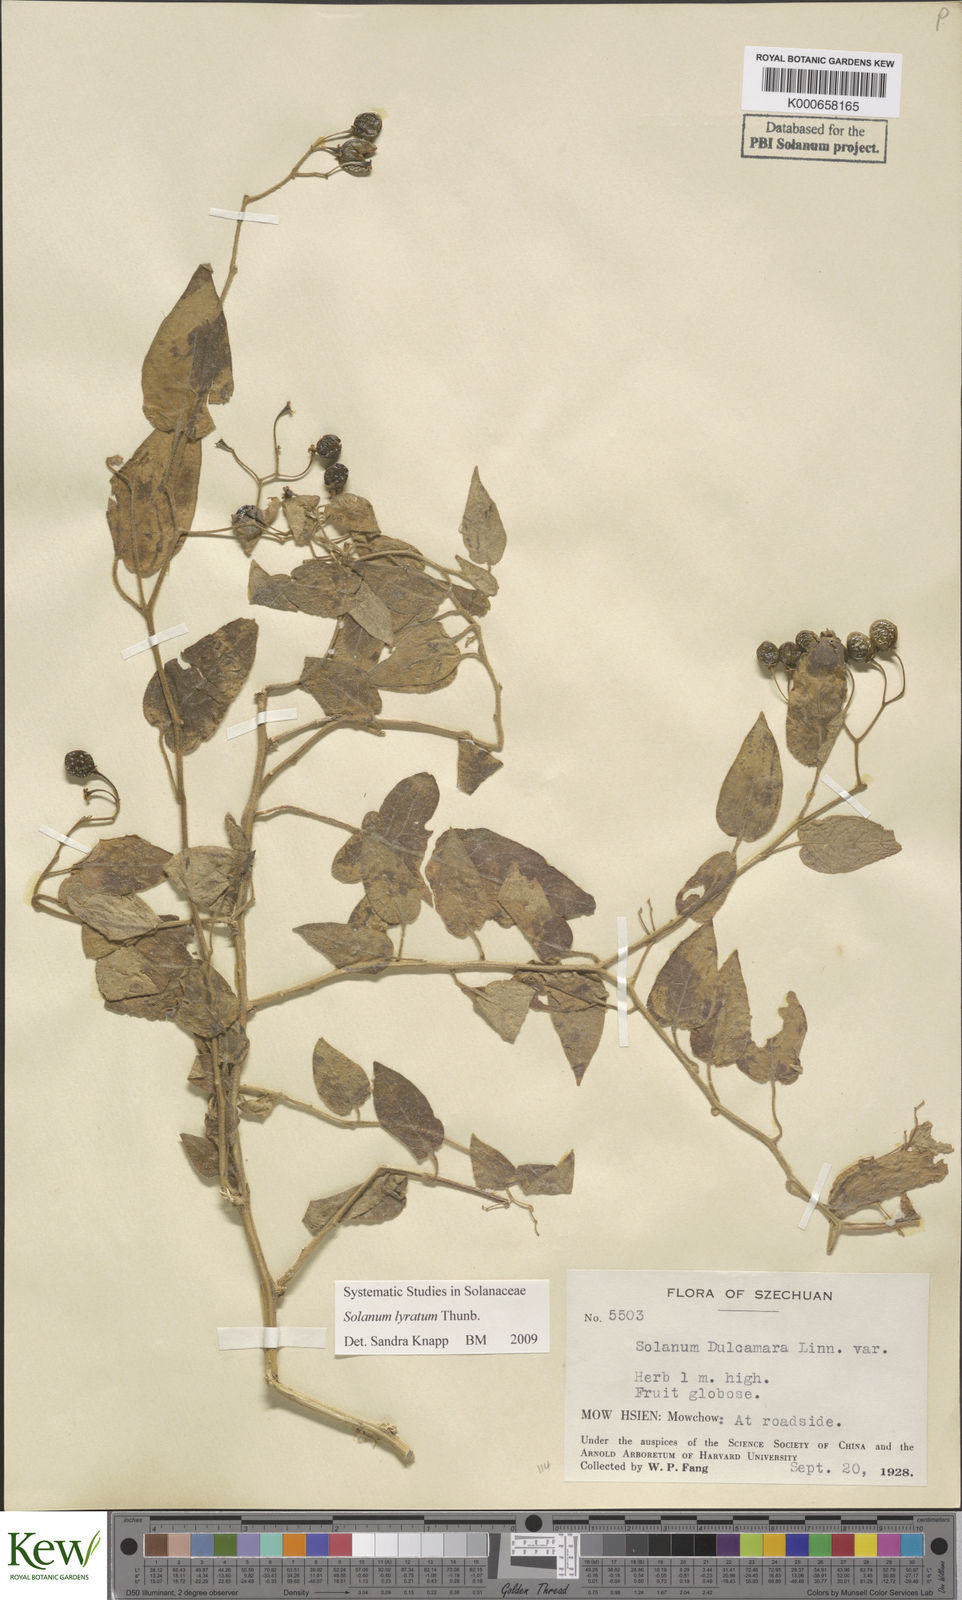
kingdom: Plantae
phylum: Tracheophyta
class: Magnoliopsida
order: Solanales
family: Solanaceae
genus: Solanum
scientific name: Solanum lyratum
